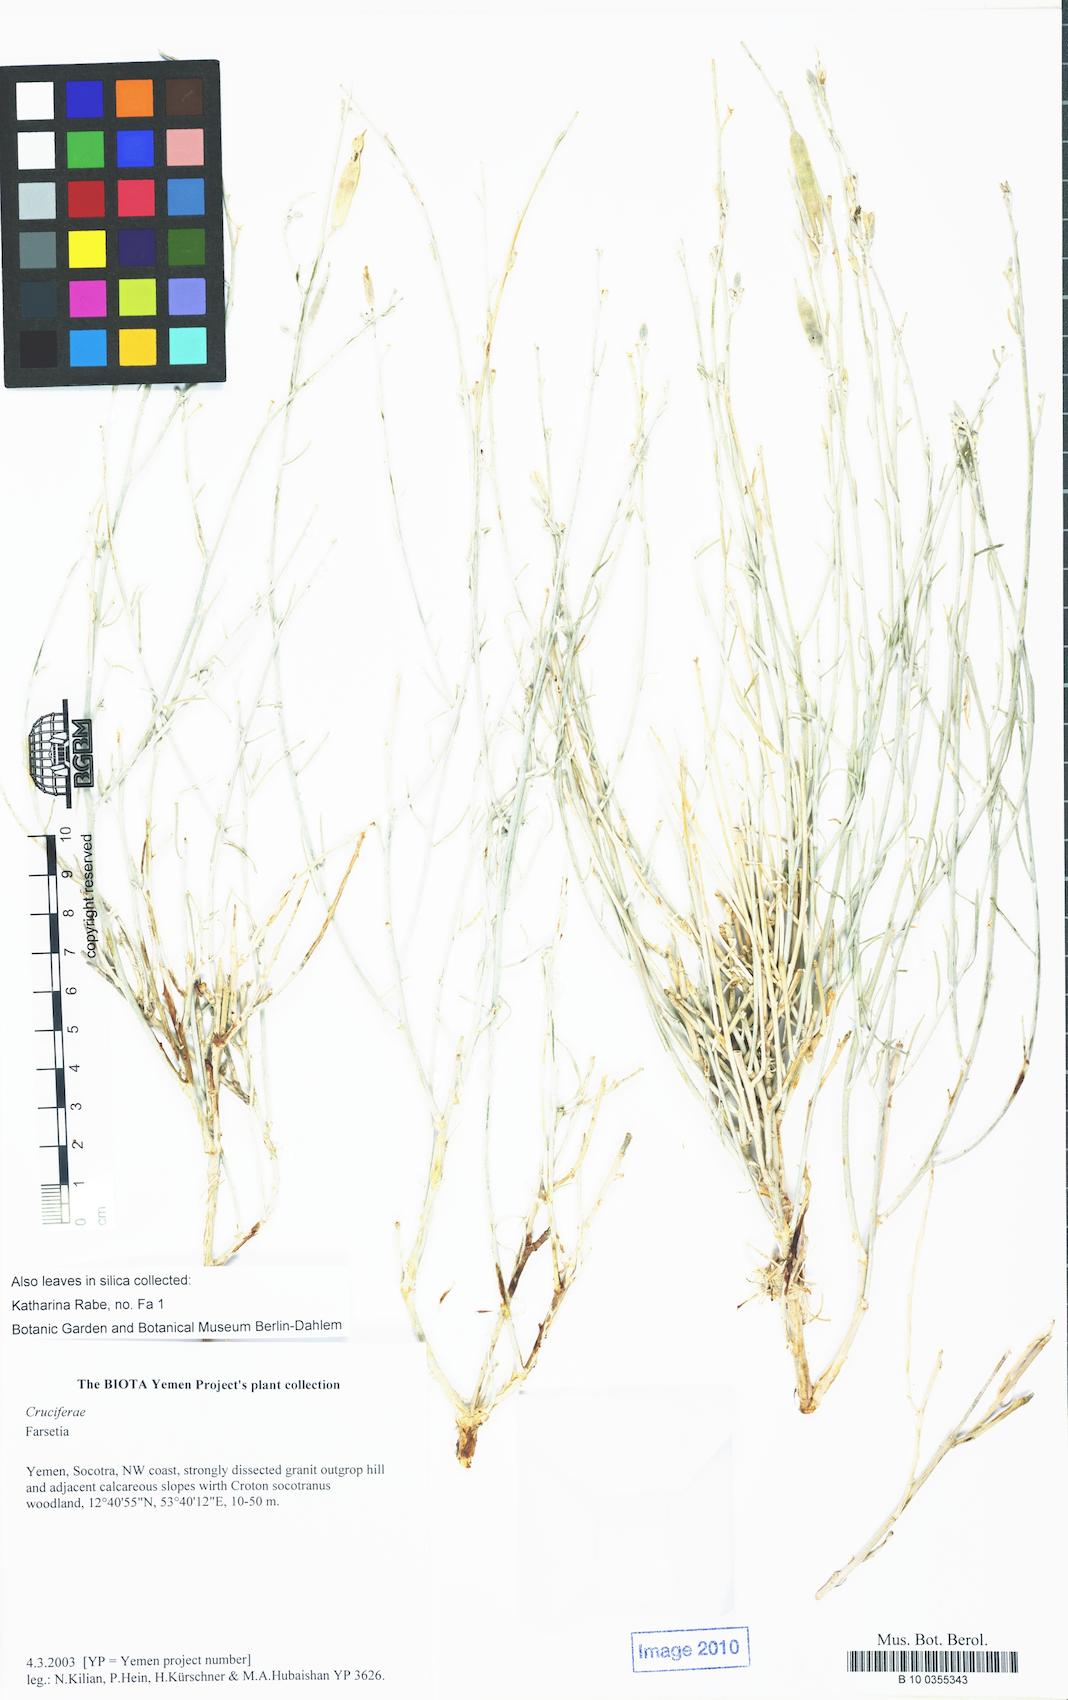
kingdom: Plantae
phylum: Tracheophyta
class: Magnoliopsida
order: Brassicales
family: Brassicaceae
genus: Farsetia
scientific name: Farsetia
